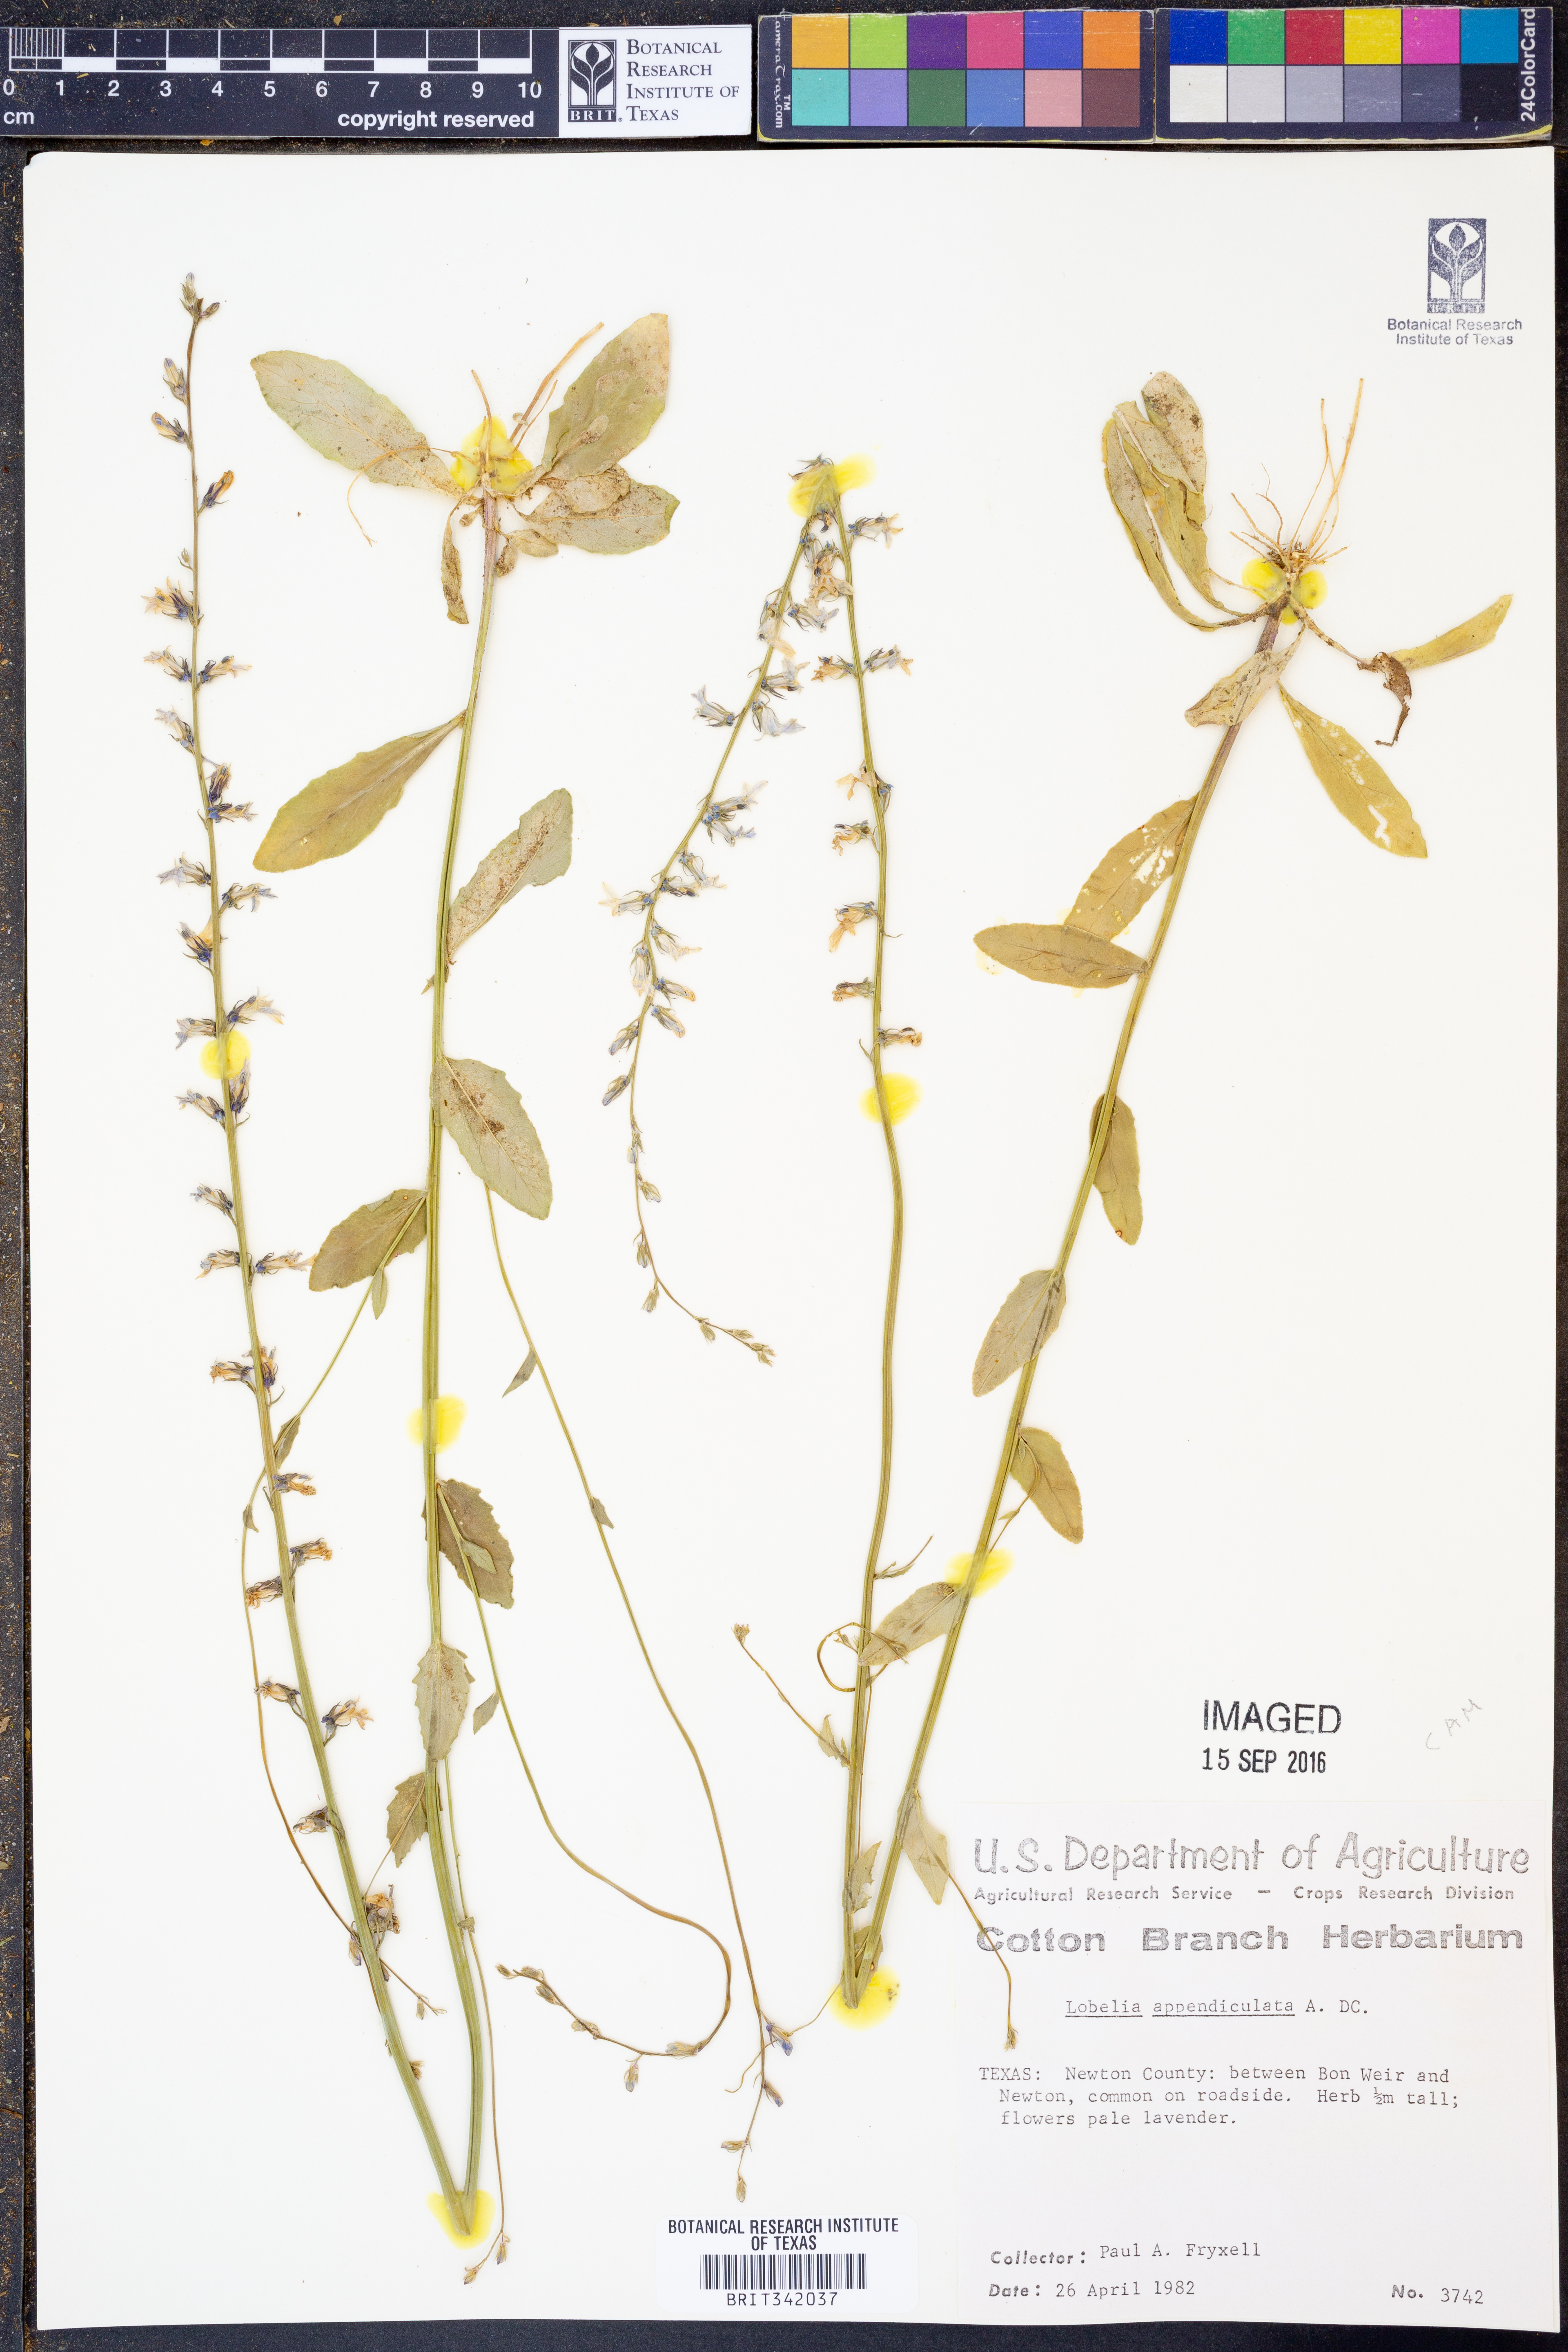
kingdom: Plantae
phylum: Tracheophyta
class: Magnoliopsida
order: Asterales
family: Campanulaceae
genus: Lobelia
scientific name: Lobelia appendiculata
